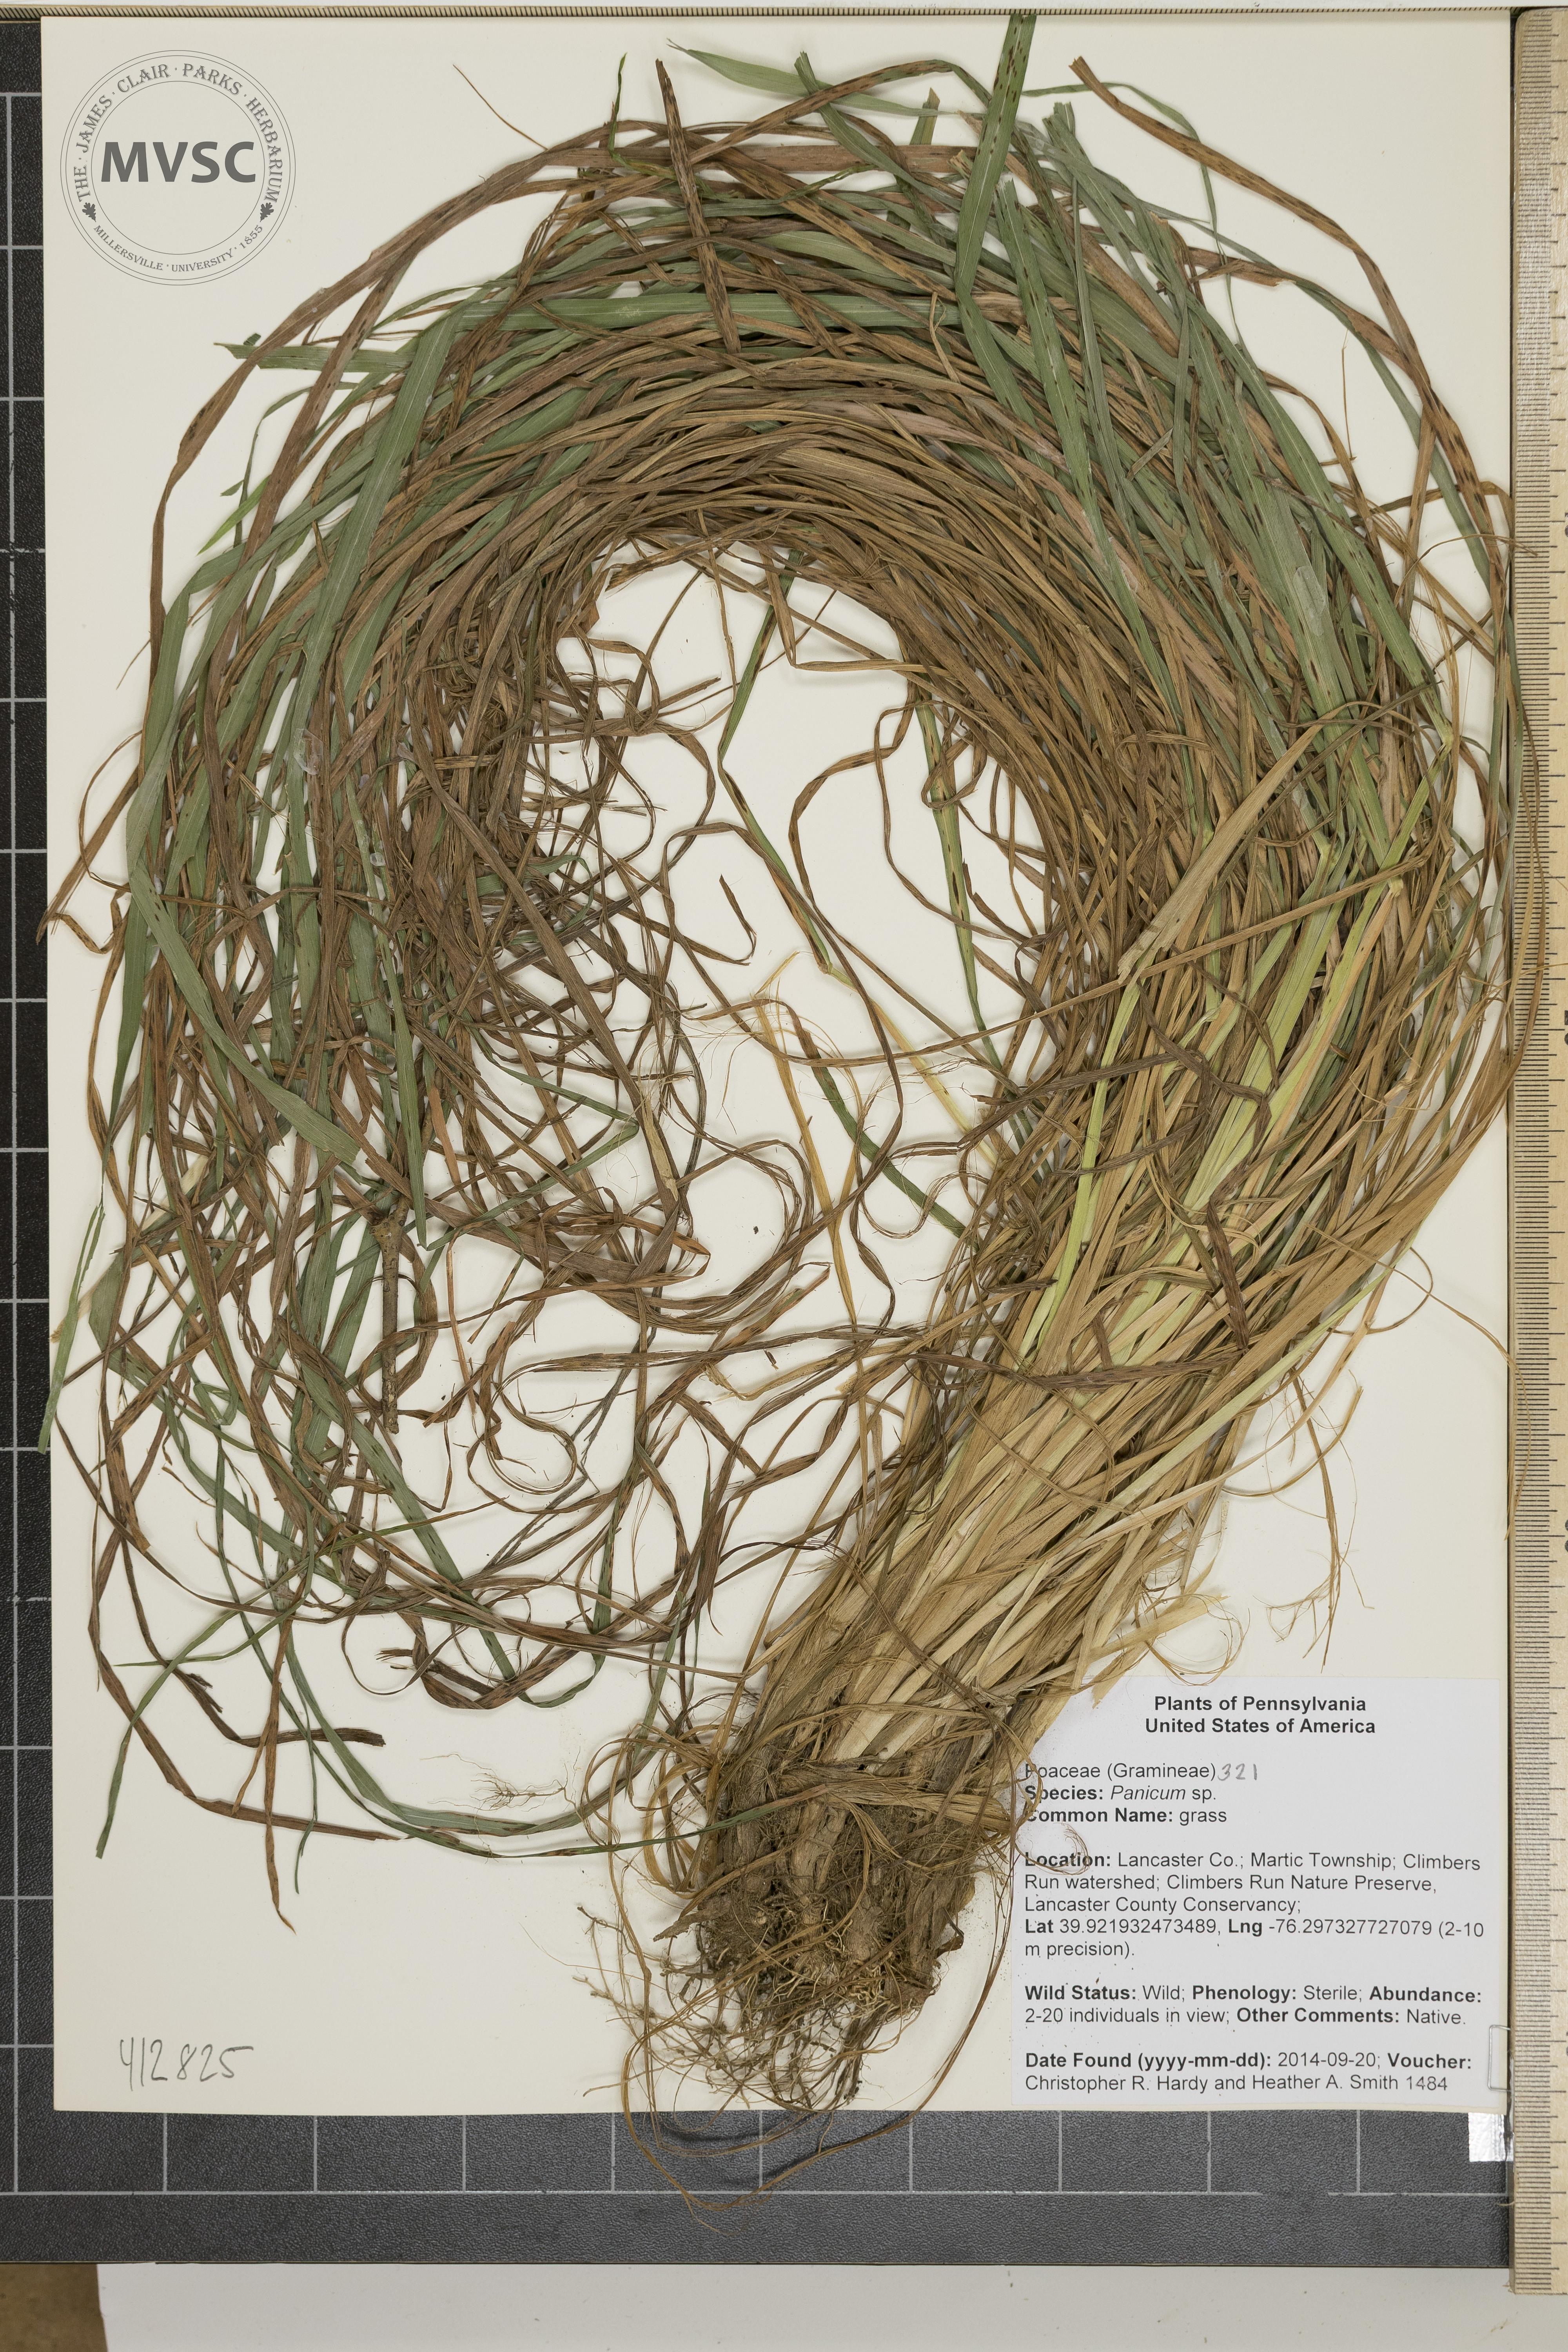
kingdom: Plantae
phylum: Tracheophyta
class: Liliopsida
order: Poales
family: Poaceae
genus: Panicum
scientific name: Panicum
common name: grass
